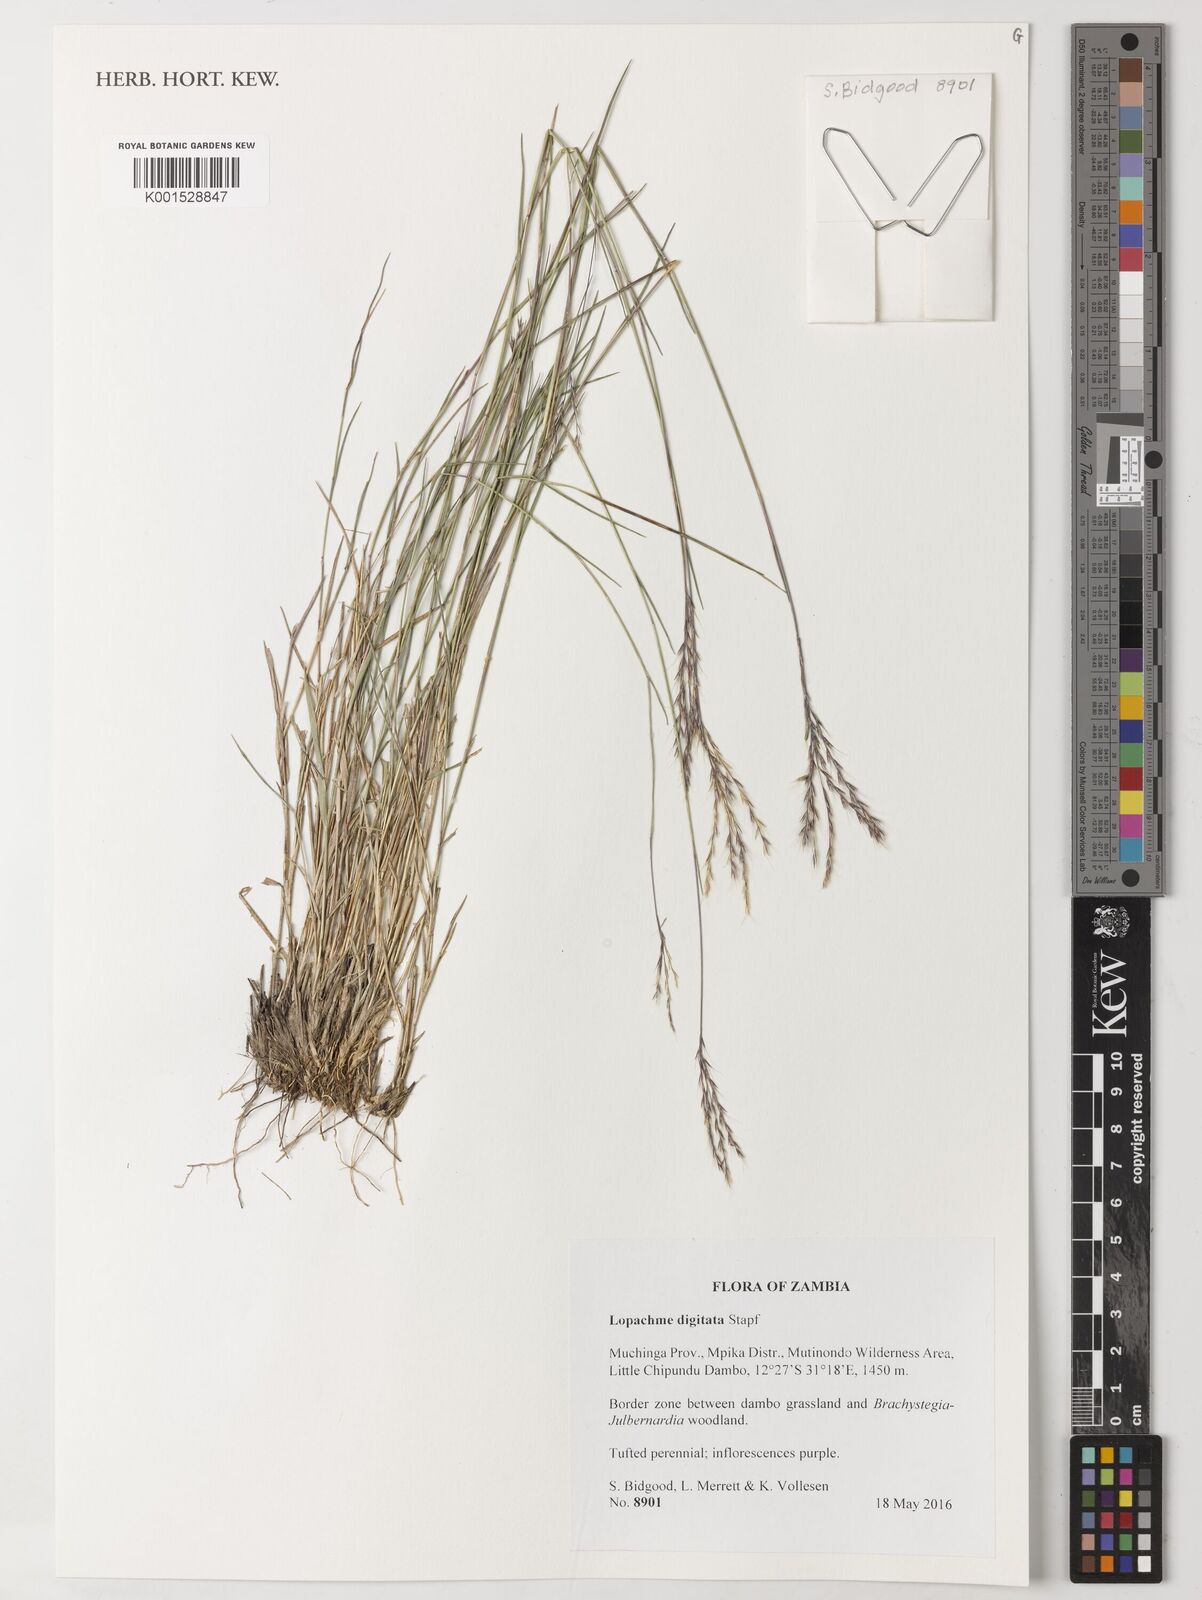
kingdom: Plantae
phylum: Tracheophyta
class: Liliopsida
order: Poales
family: Poaceae
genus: Lophacme
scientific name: Lophacme digitata
